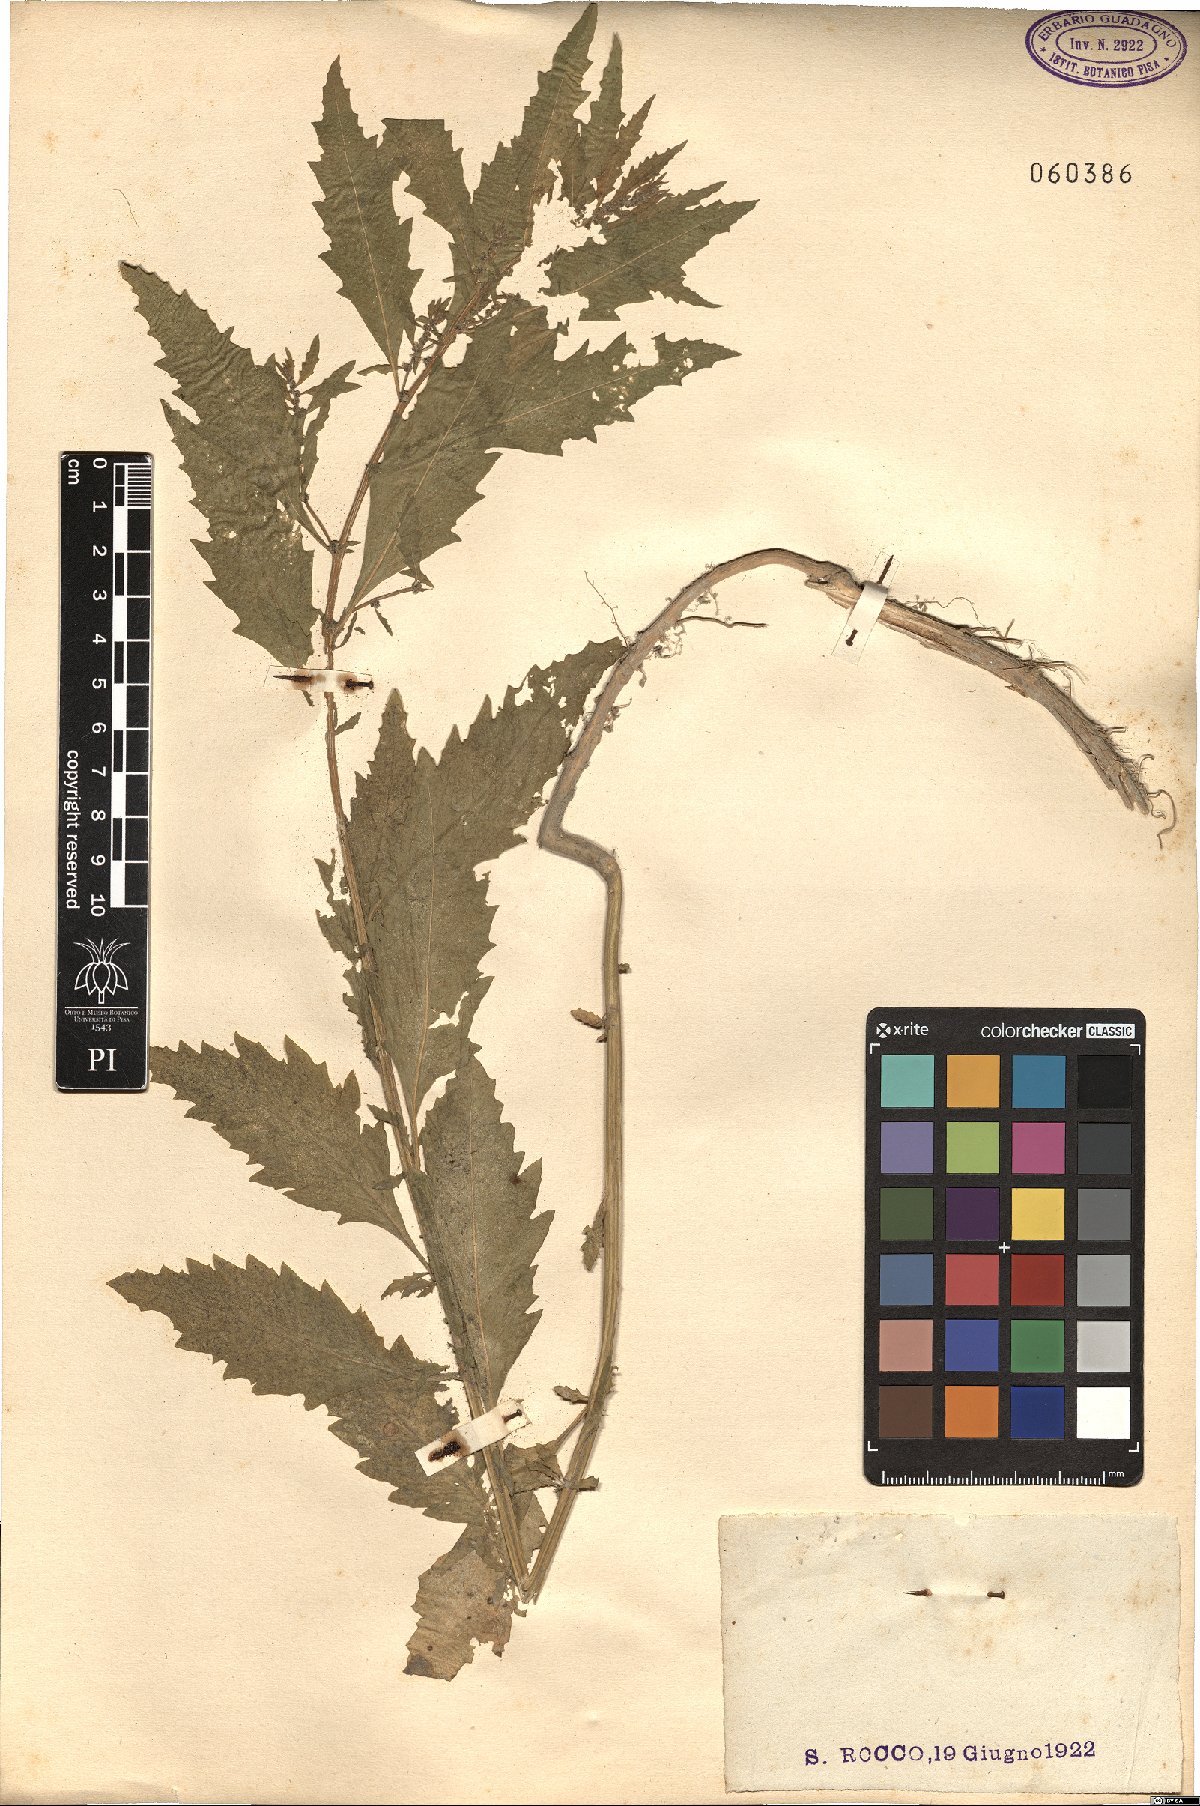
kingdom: Plantae
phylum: Tracheophyta
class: Magnoliopsida
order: Lamiales
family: Lamiaceae
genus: Lycopus
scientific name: Lycopus europaeus
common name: European bugleweed
